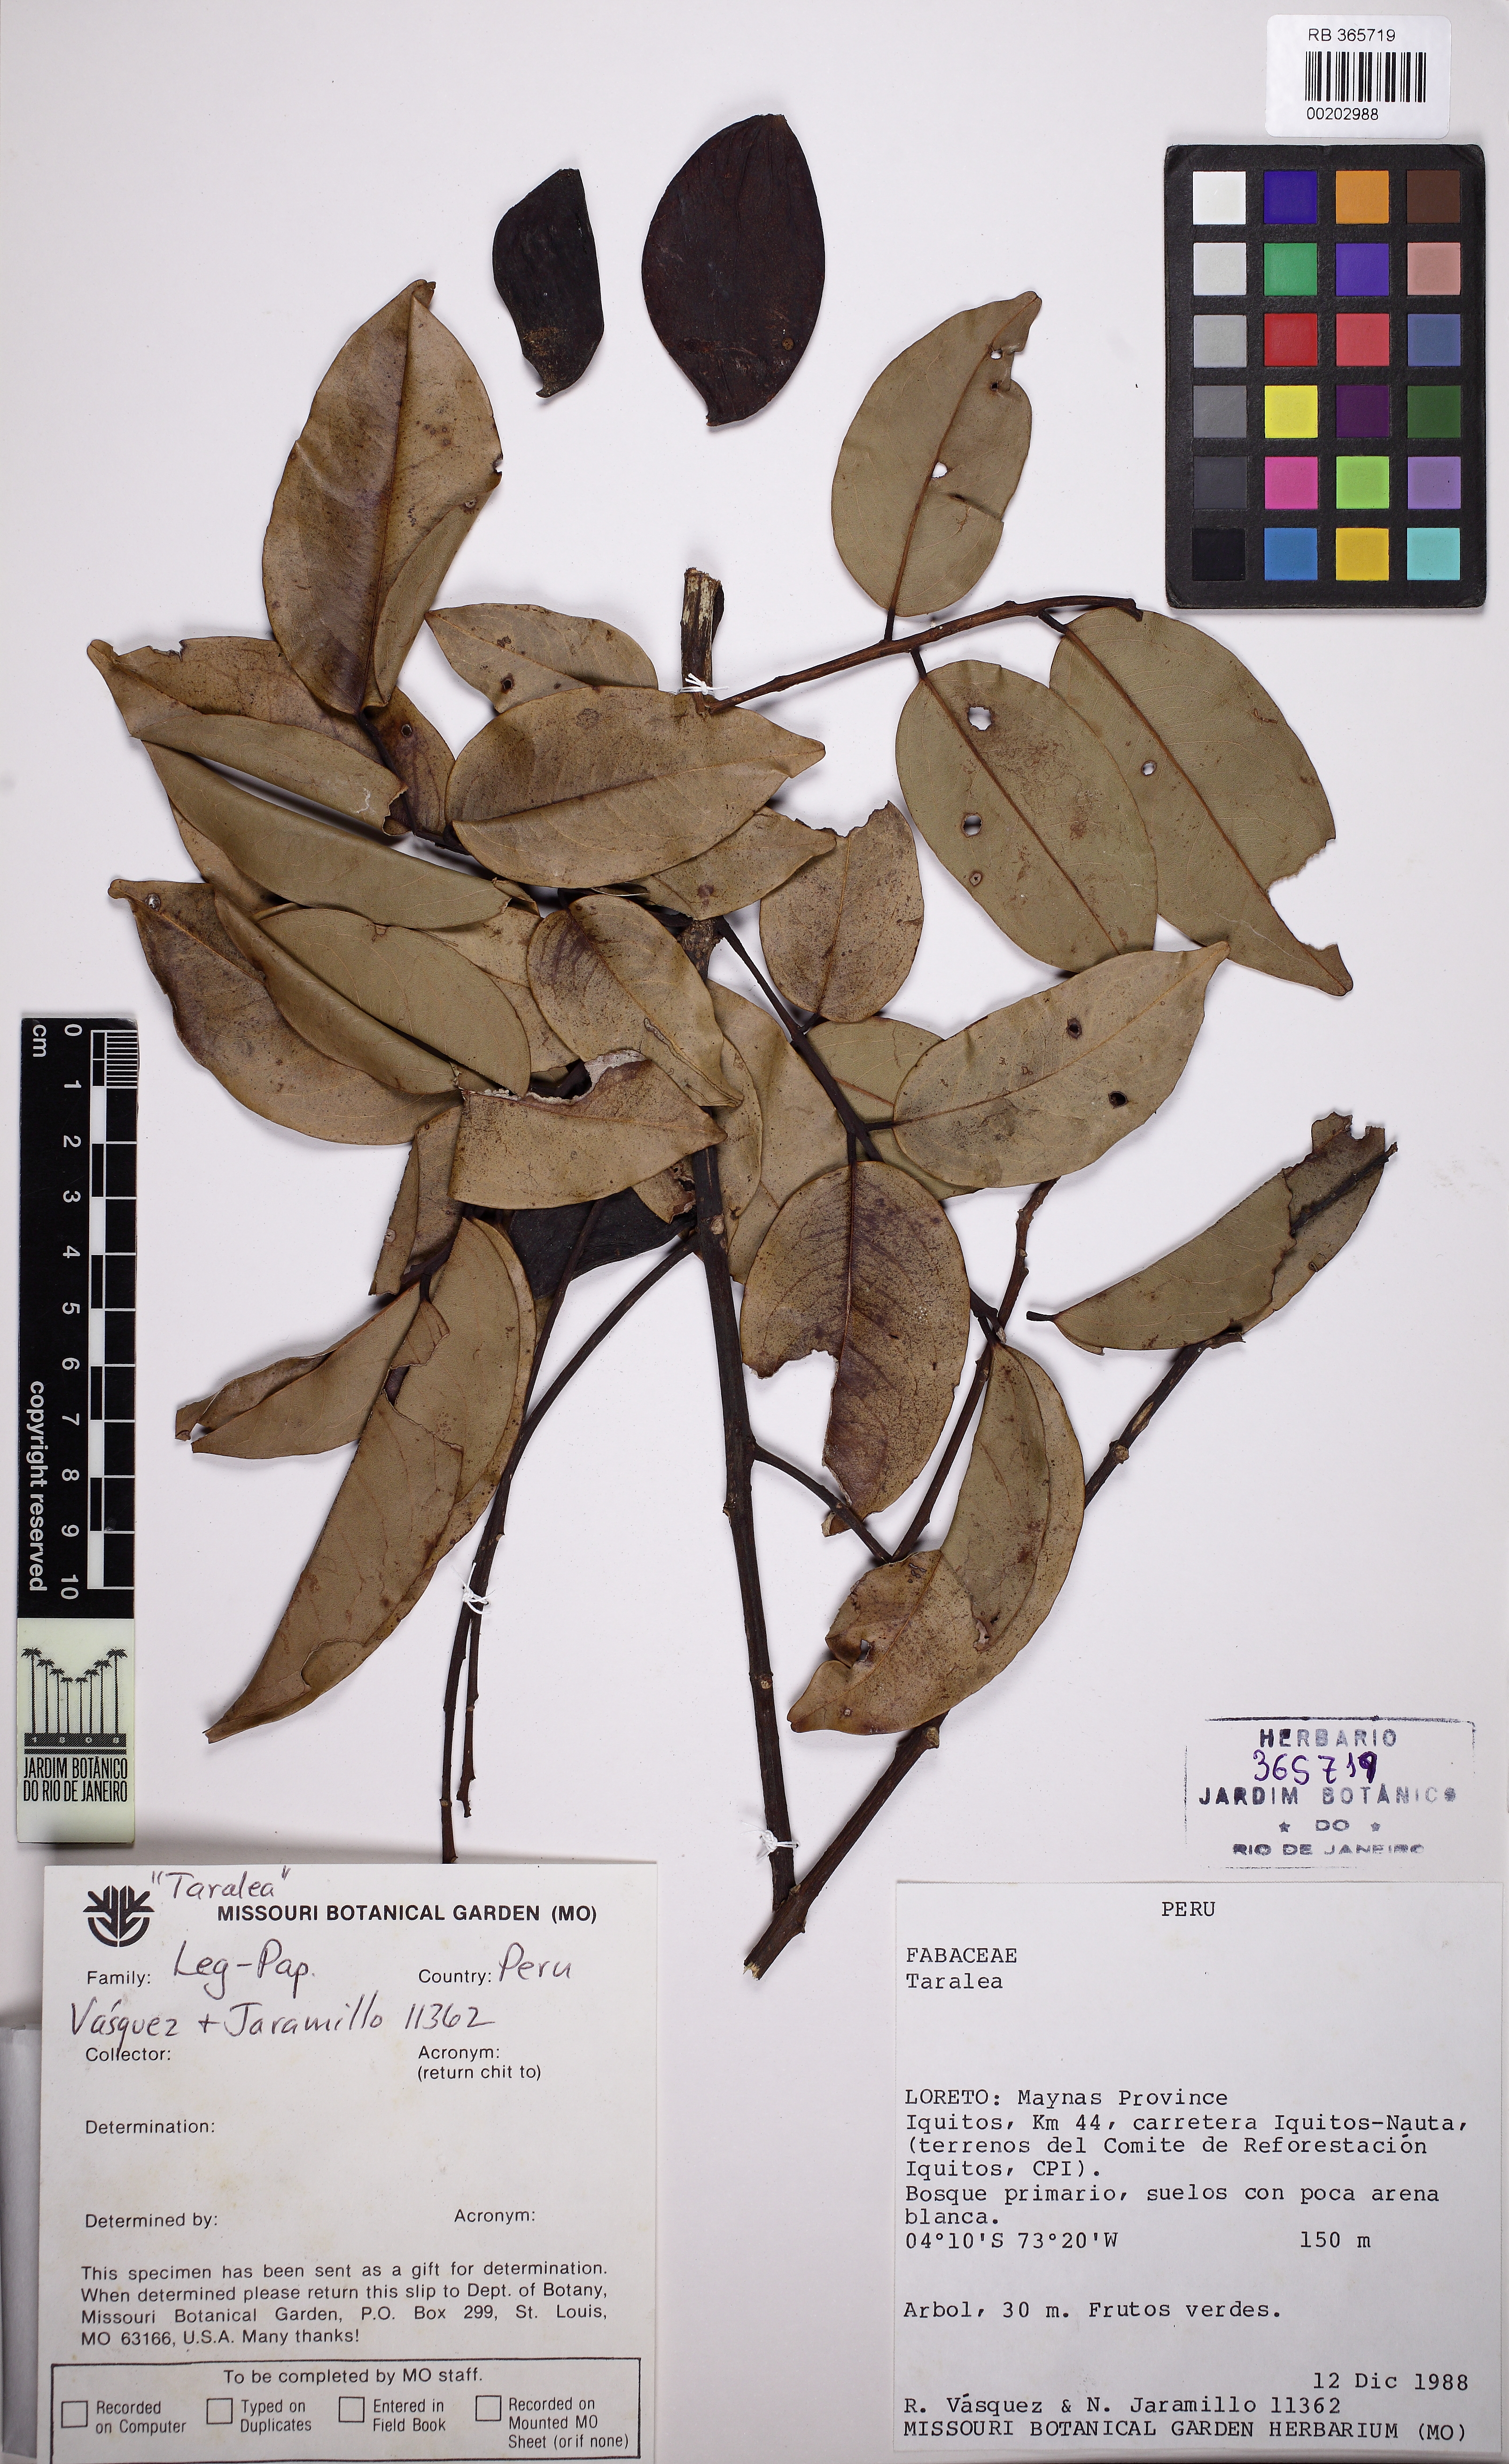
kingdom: Plantae
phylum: Tracheophyta
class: Magnoliopsida
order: Fabales
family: Fabaceae
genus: Taralea
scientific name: Taralea oppositifolia
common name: Tonka
